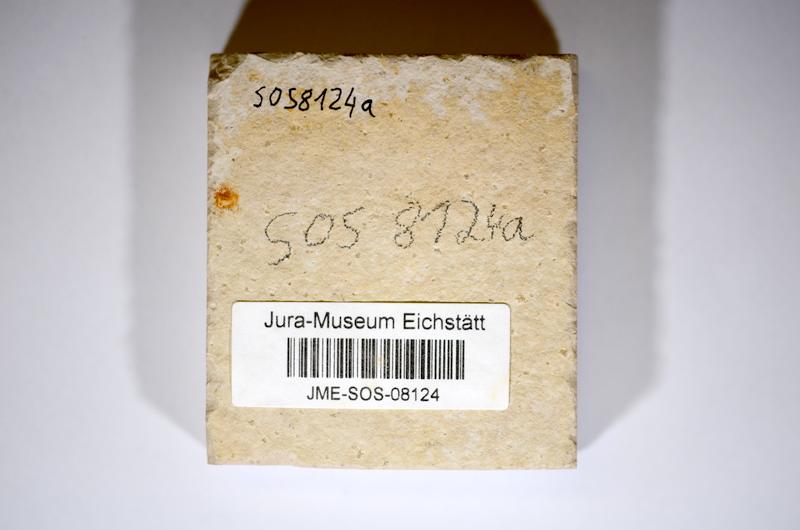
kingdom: Animalia
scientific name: Animalia
